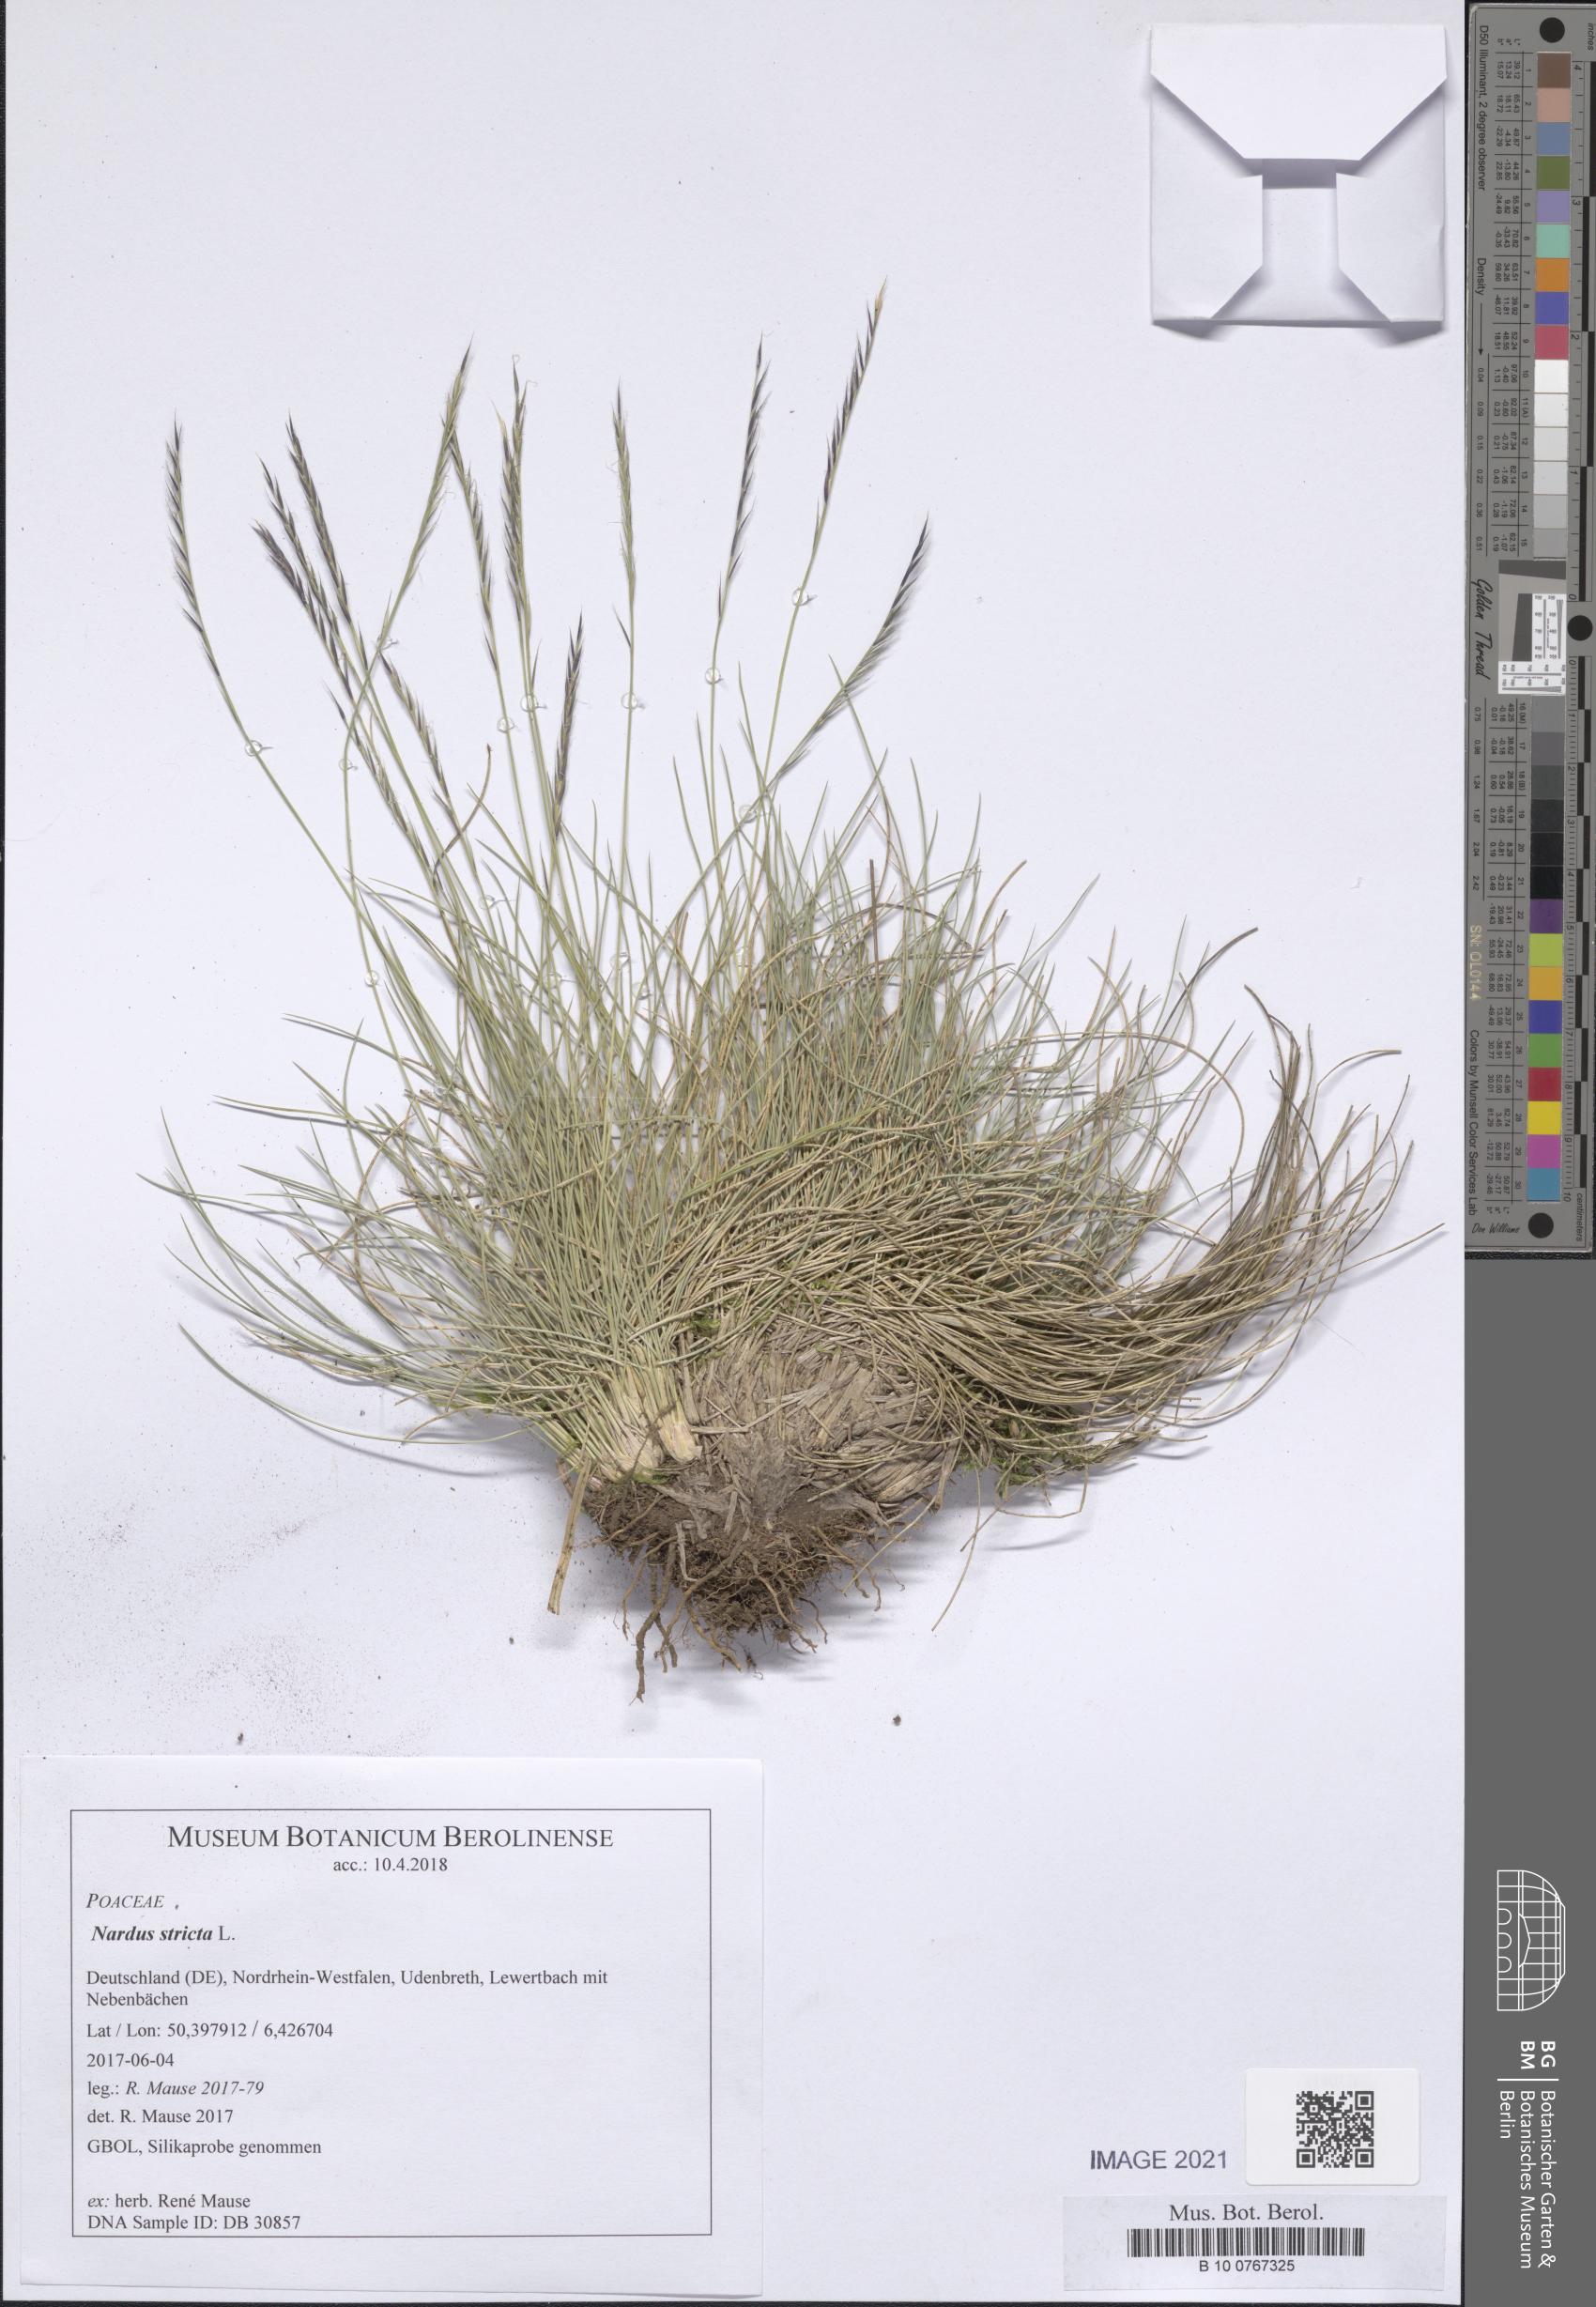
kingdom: Plantae
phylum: Tracheophyta
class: Liliopsida
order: Poales
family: Poaceae
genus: Nardus
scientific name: Nardus stricta
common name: Mat-grass
